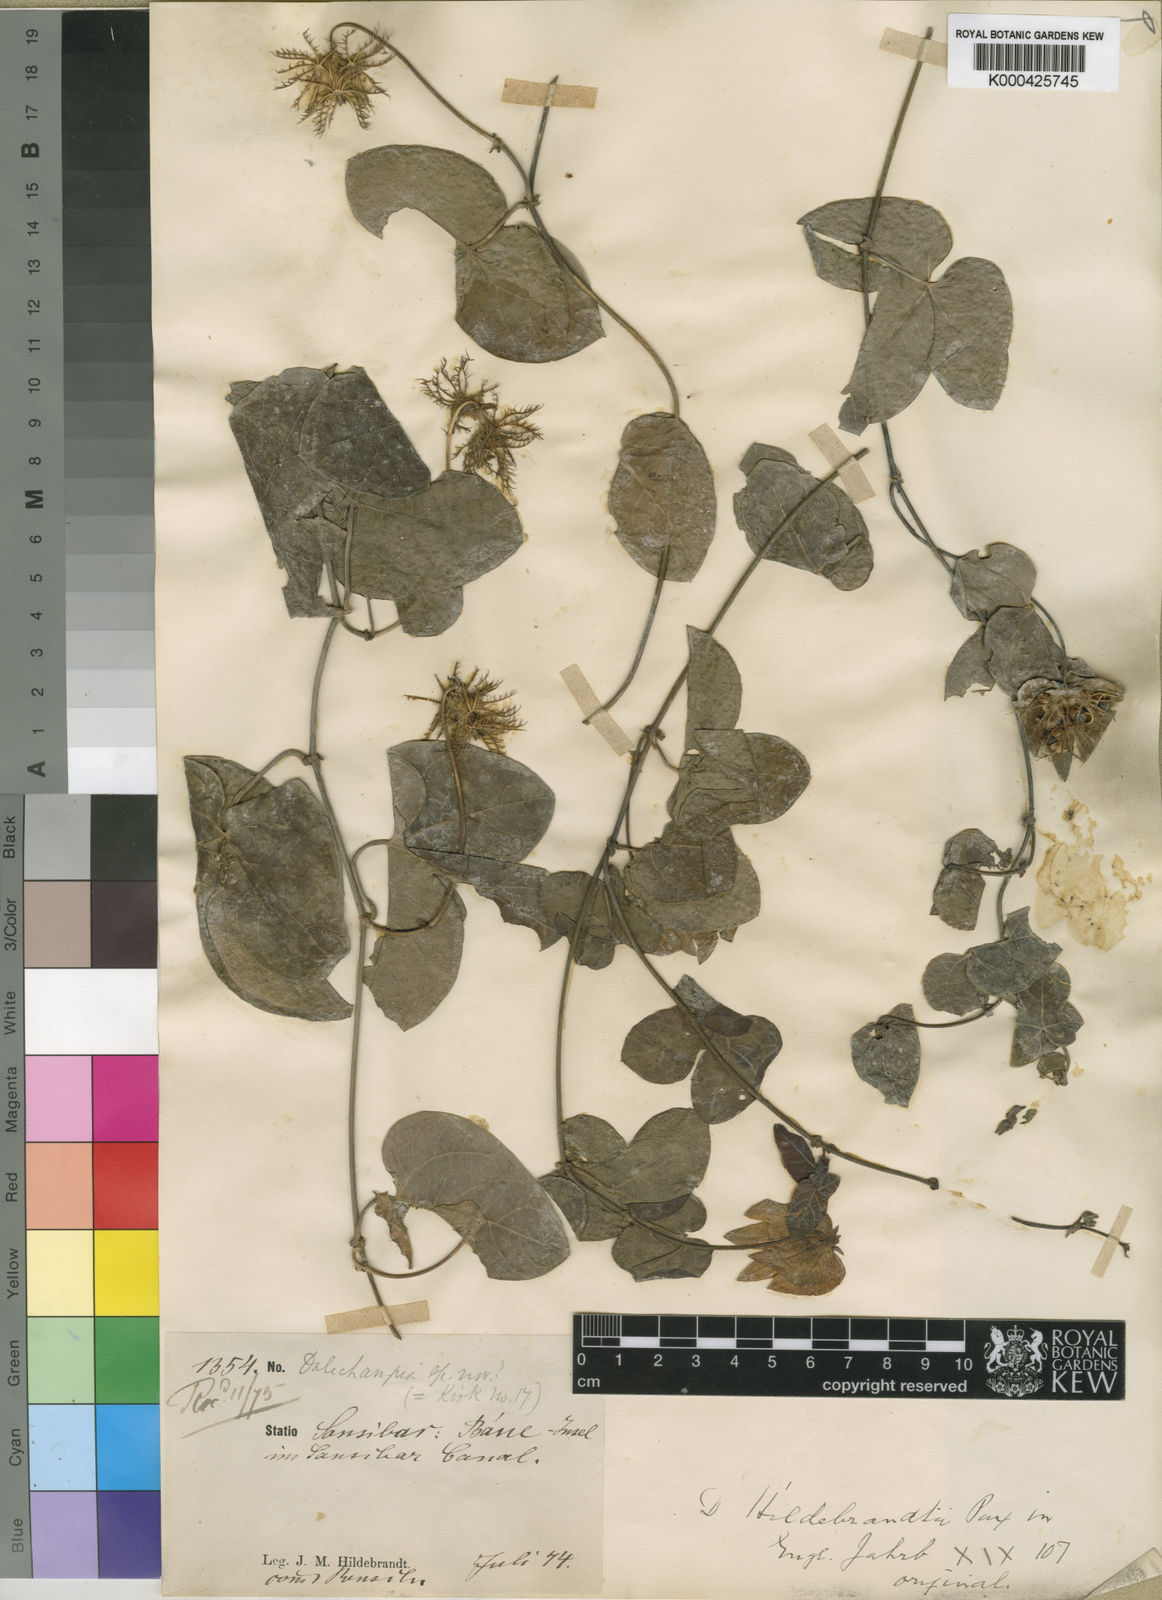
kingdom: Plantae
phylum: Tracheophyta
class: Magnoliopsida
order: Malpighiales
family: Euphorbiaceae
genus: Dalechampia
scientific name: Dalechampia scandens
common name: Spurgecreeper
